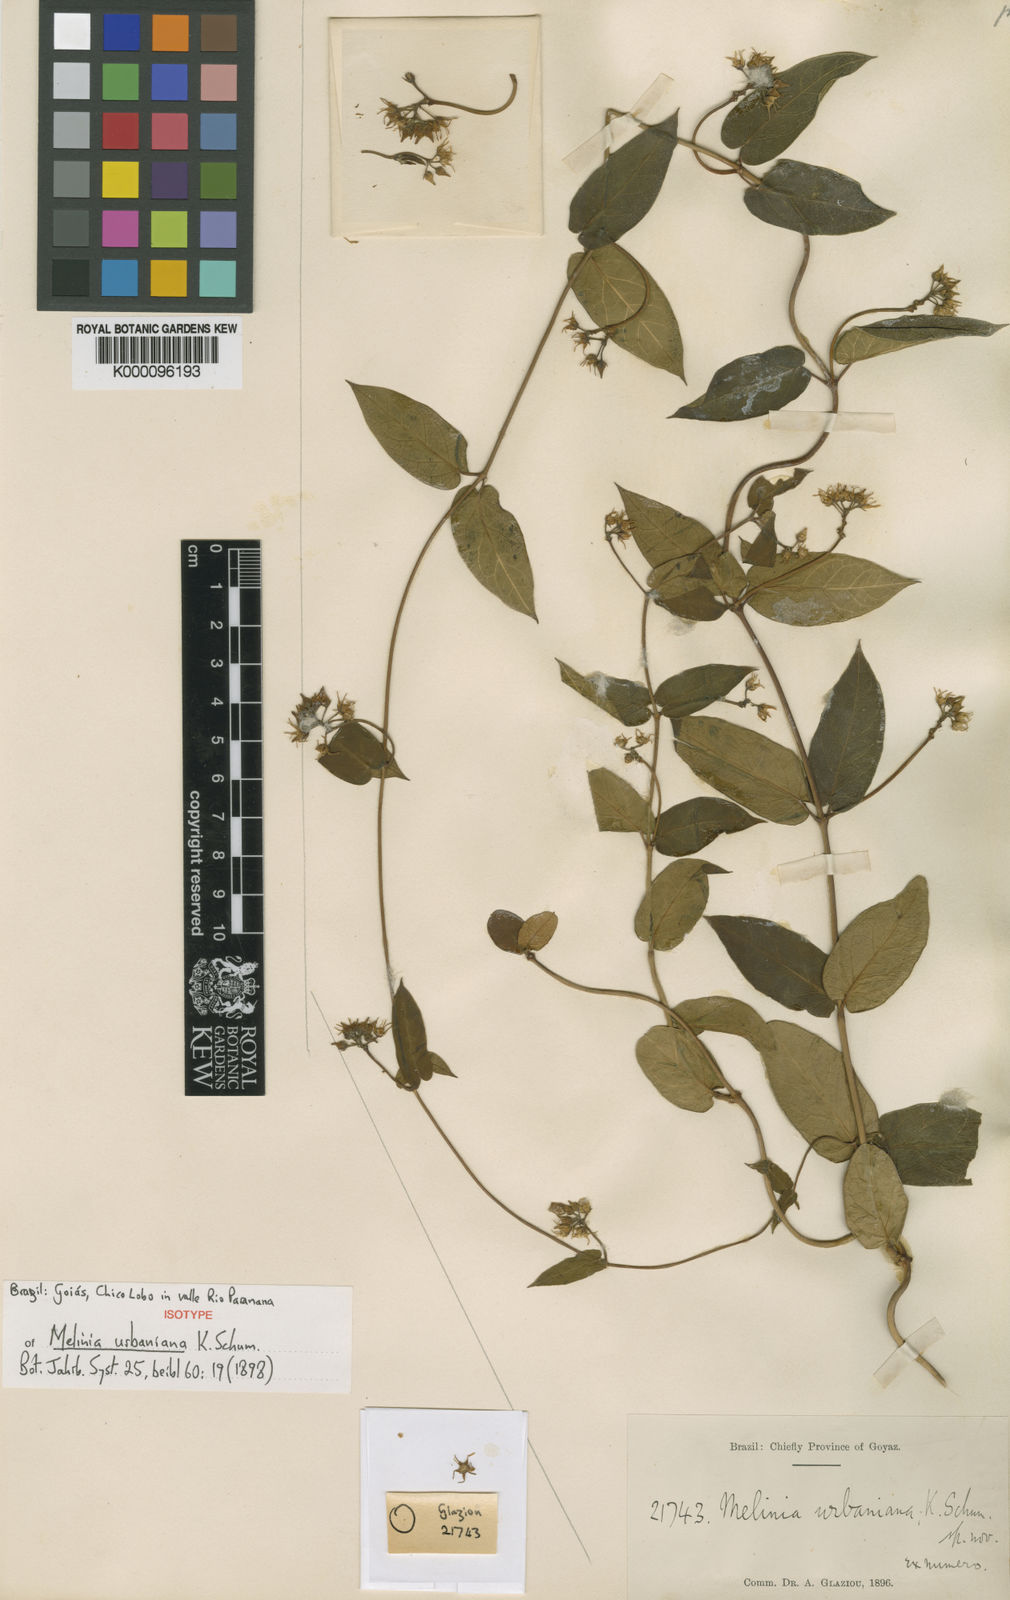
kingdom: Plantae
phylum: Tracheophyta
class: Magnoliopsida
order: Gentianales
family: Apocynaceae
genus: Oxypetalum
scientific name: Oxypetalum melinioides
